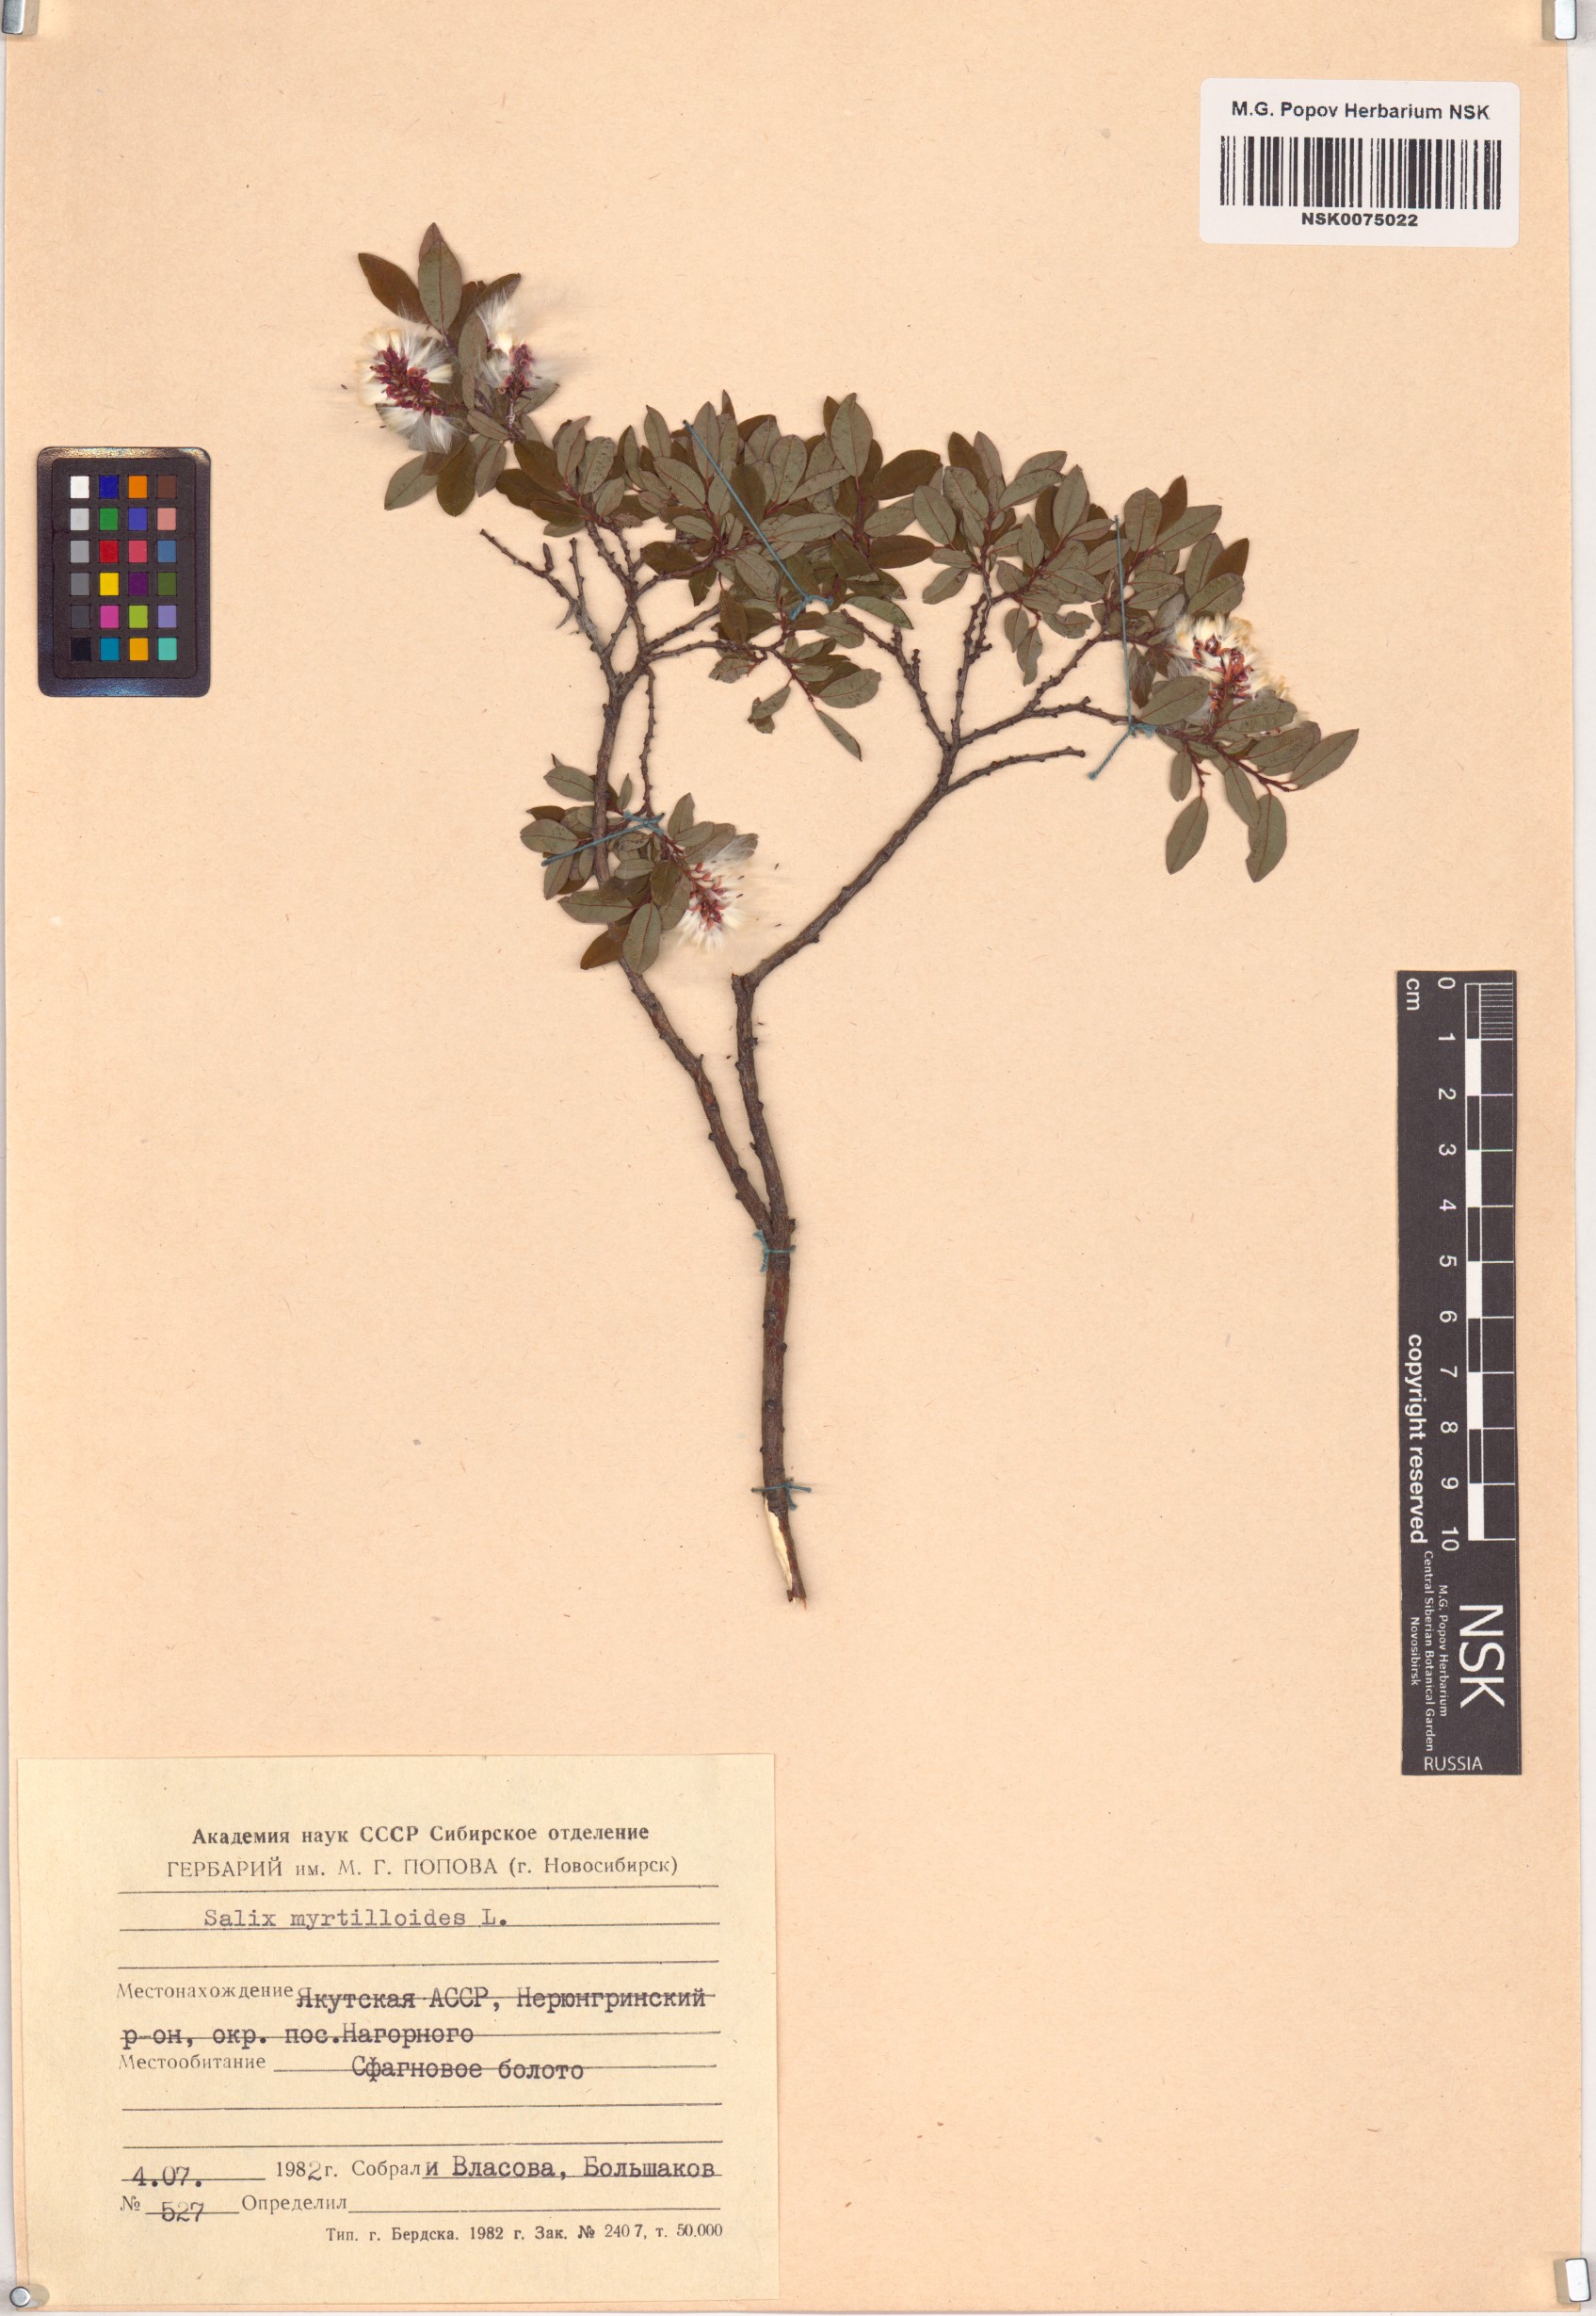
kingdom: Plantae
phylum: Tracheophyta
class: Magnoliopsida
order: Malpighiales
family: Salicaceae
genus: Salix
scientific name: Salix myrtilloides
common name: Myrtle-leaved willow
